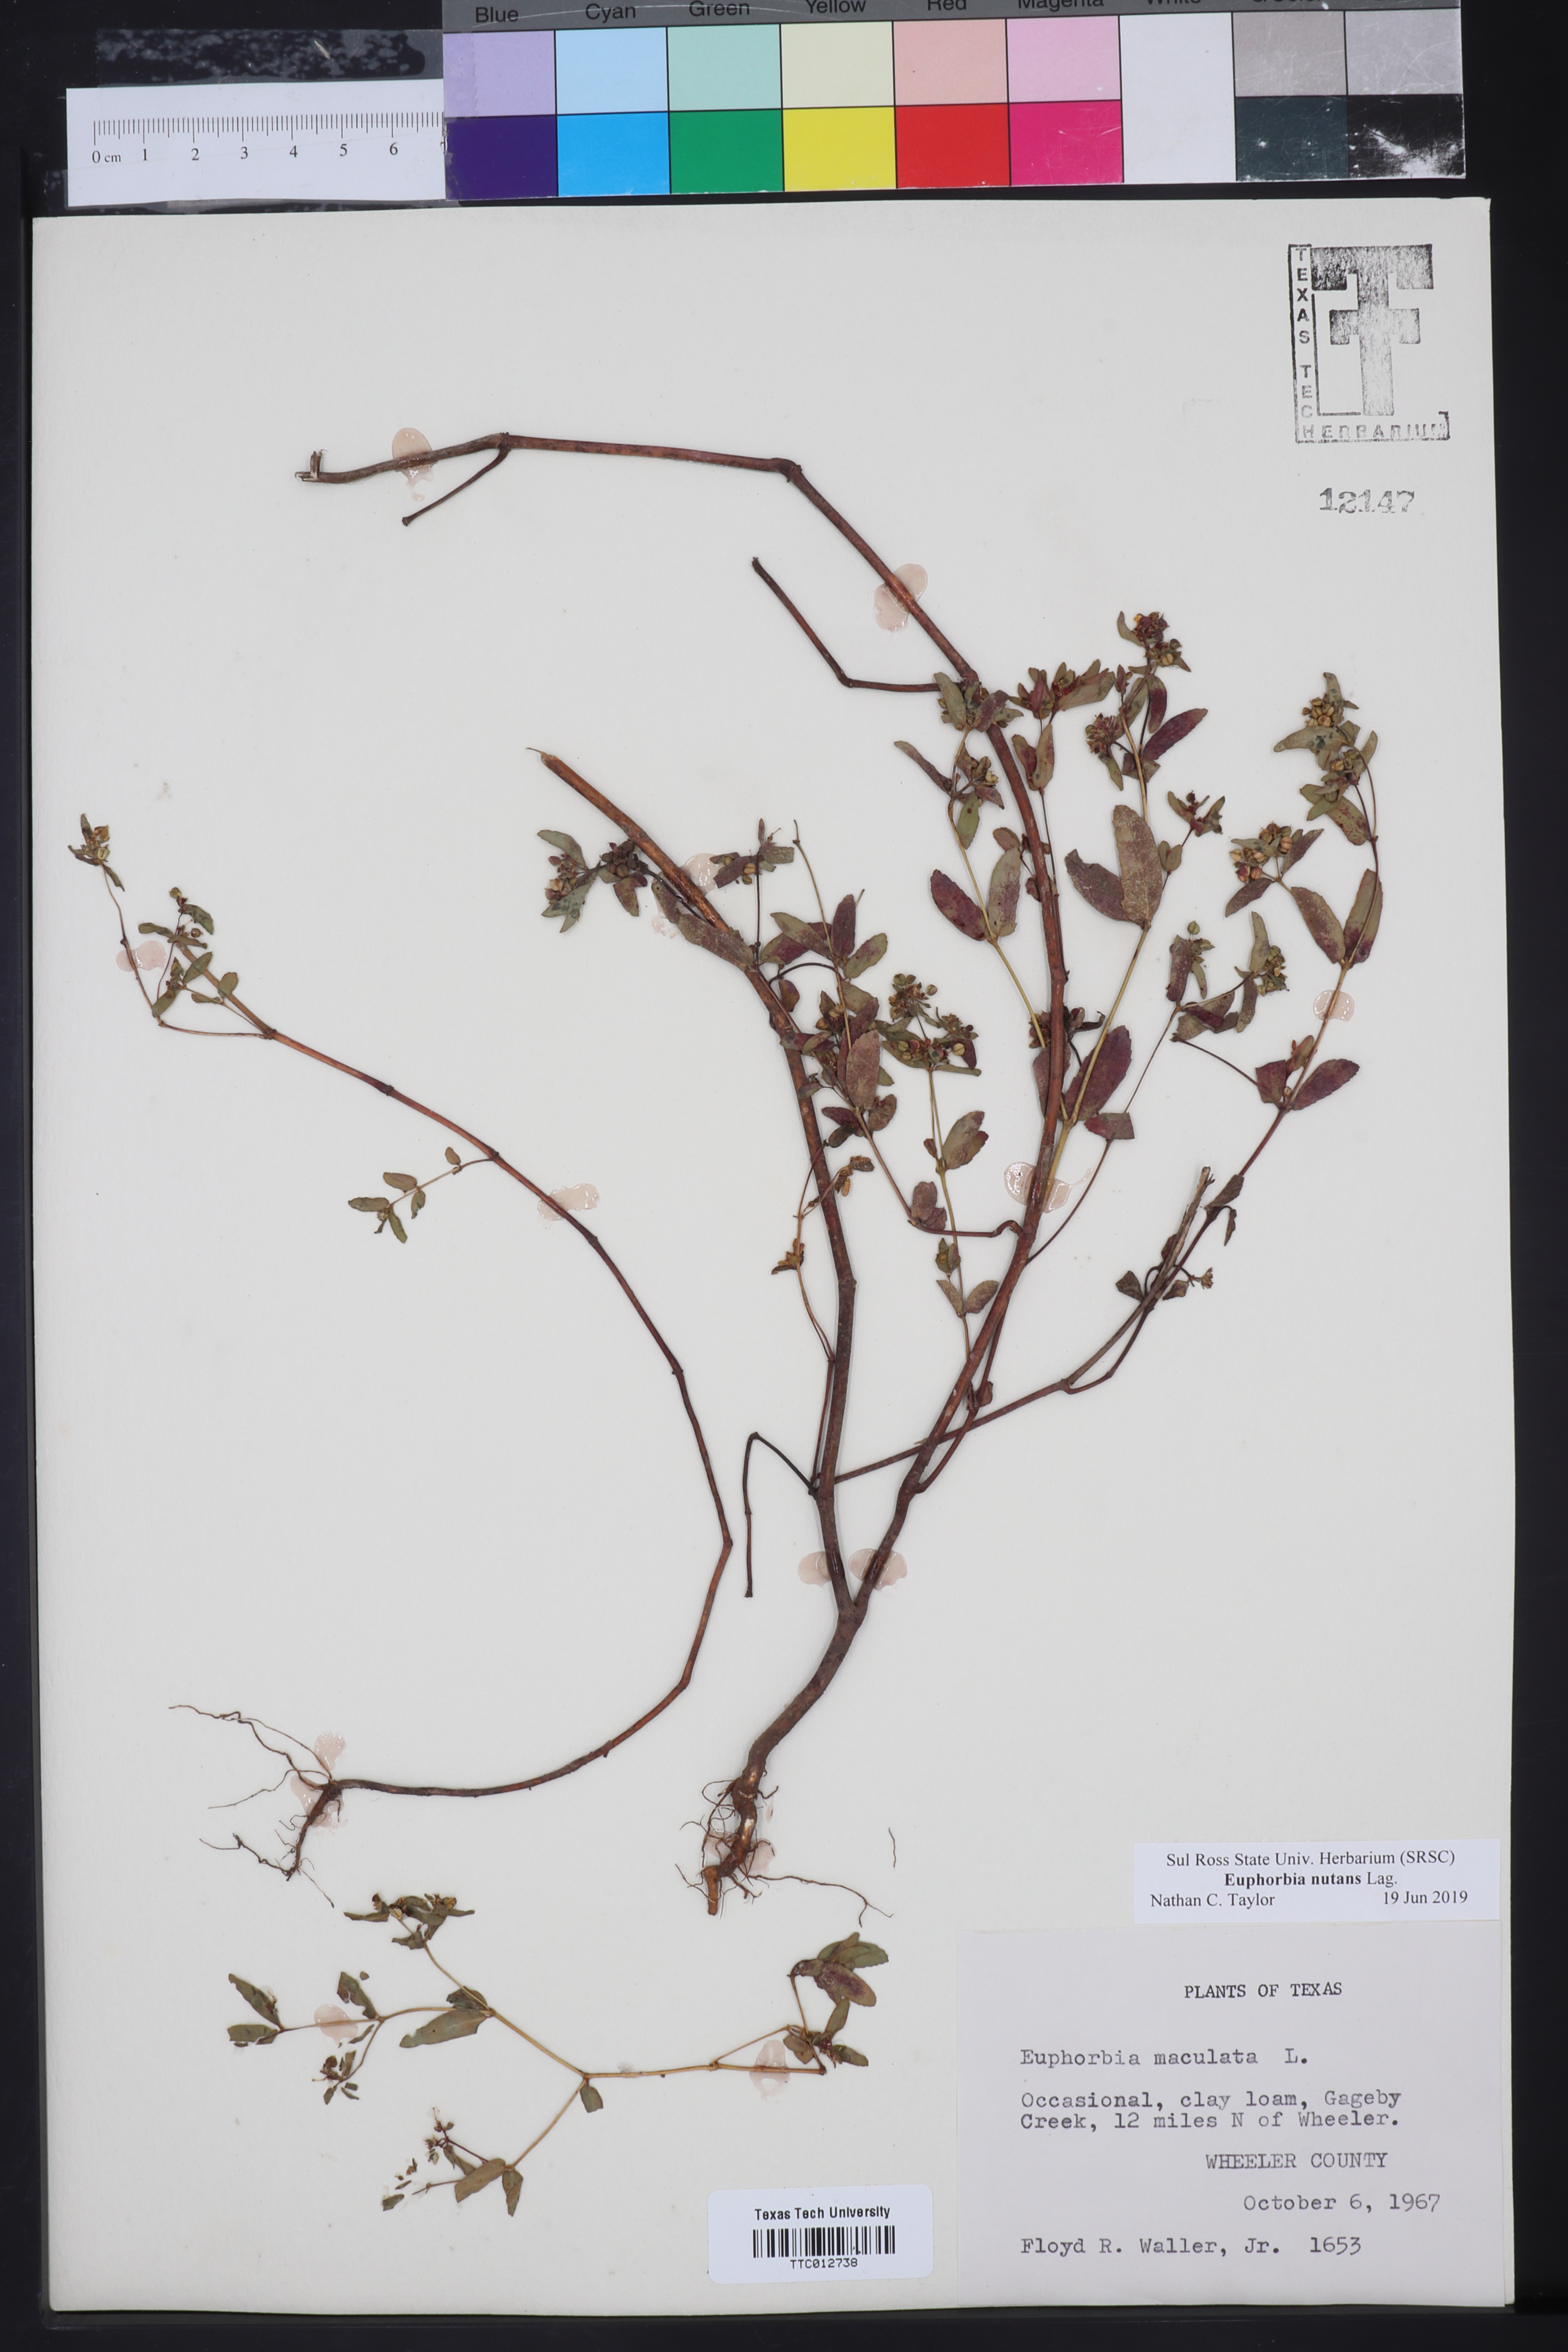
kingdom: Plantae
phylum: Tracheophyta
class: Magnoliopsida
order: Malpighiales
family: Euphorbiaceae
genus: Euphorbia
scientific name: Euphorbia nutans
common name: Eyebane
